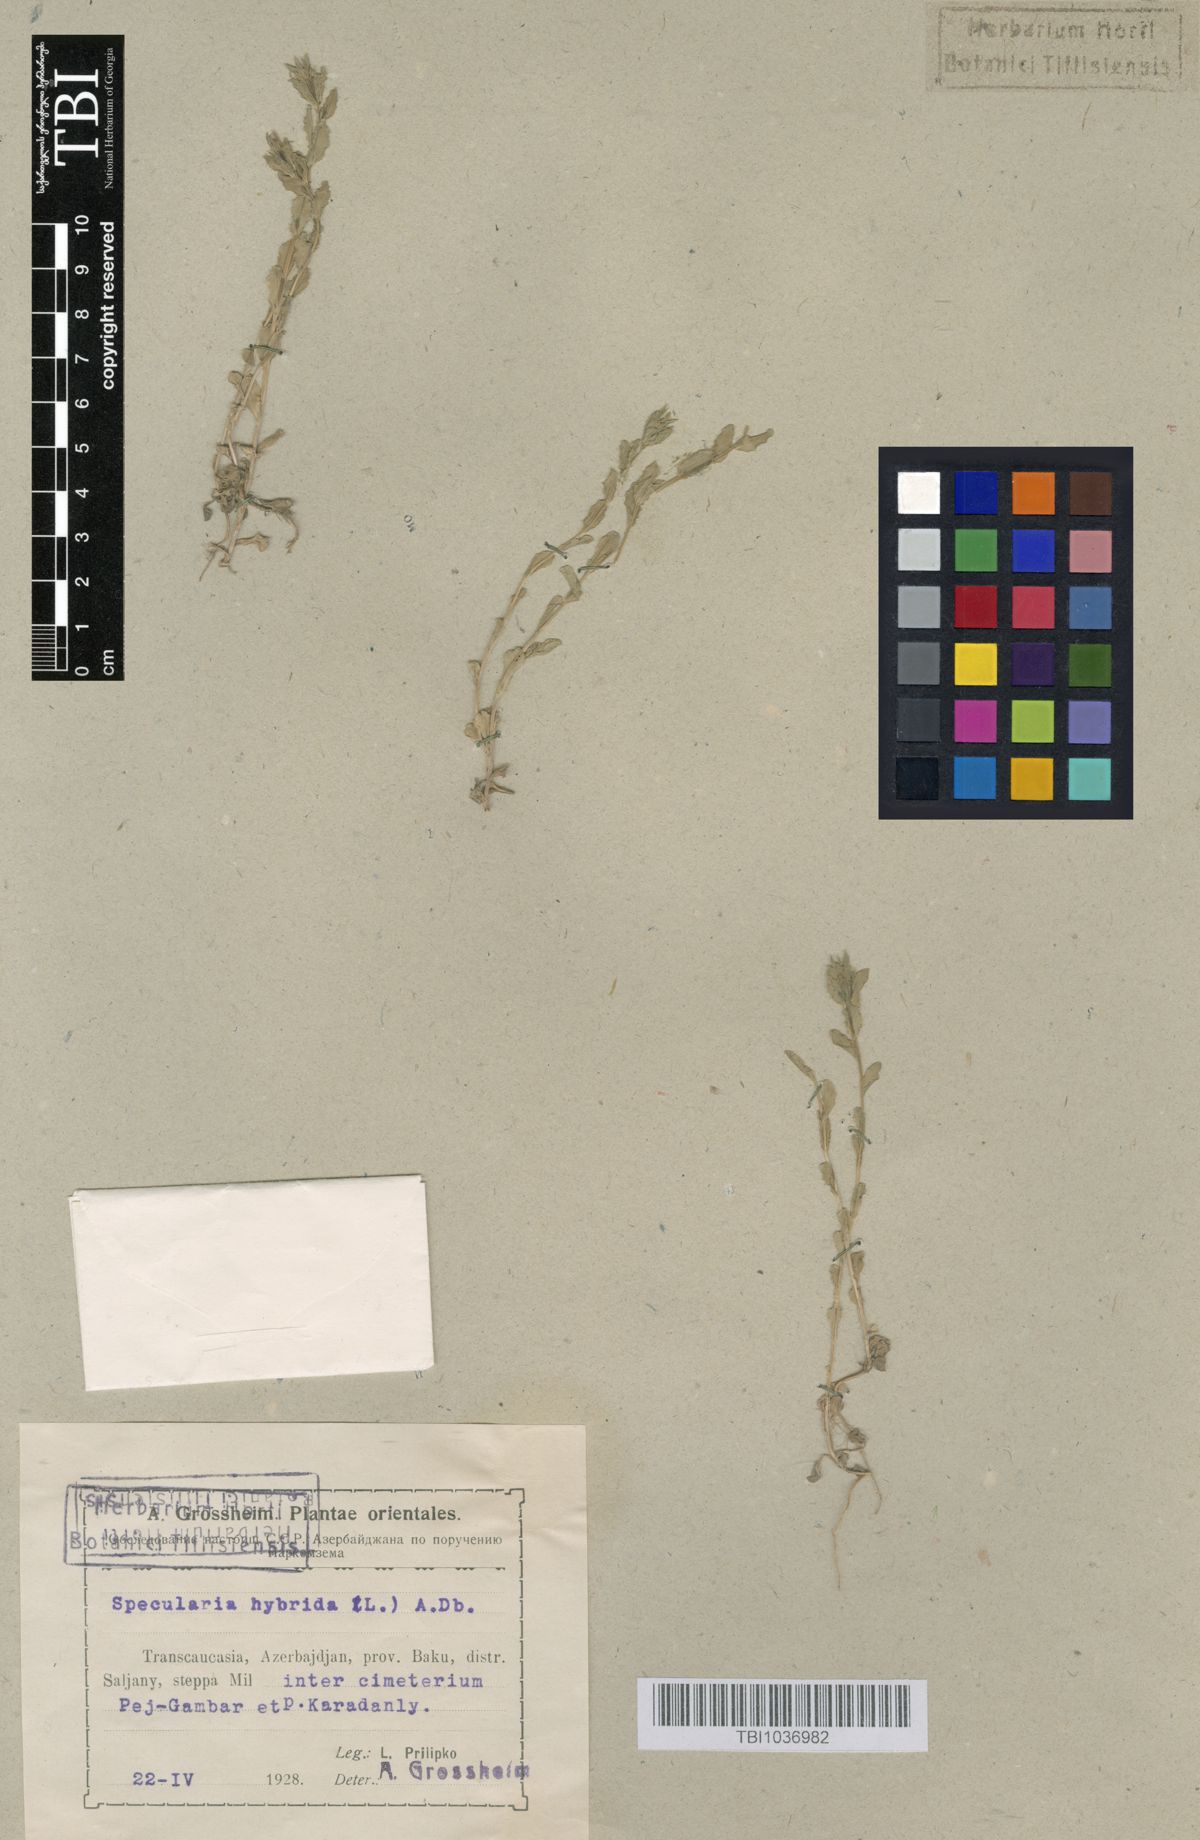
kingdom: Plantae
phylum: Tracheophyta
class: Magnoliopsida
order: Asterales
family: Campanulaceae
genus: Legousia
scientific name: Legousia hybrida
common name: Venus's-looking-glass
